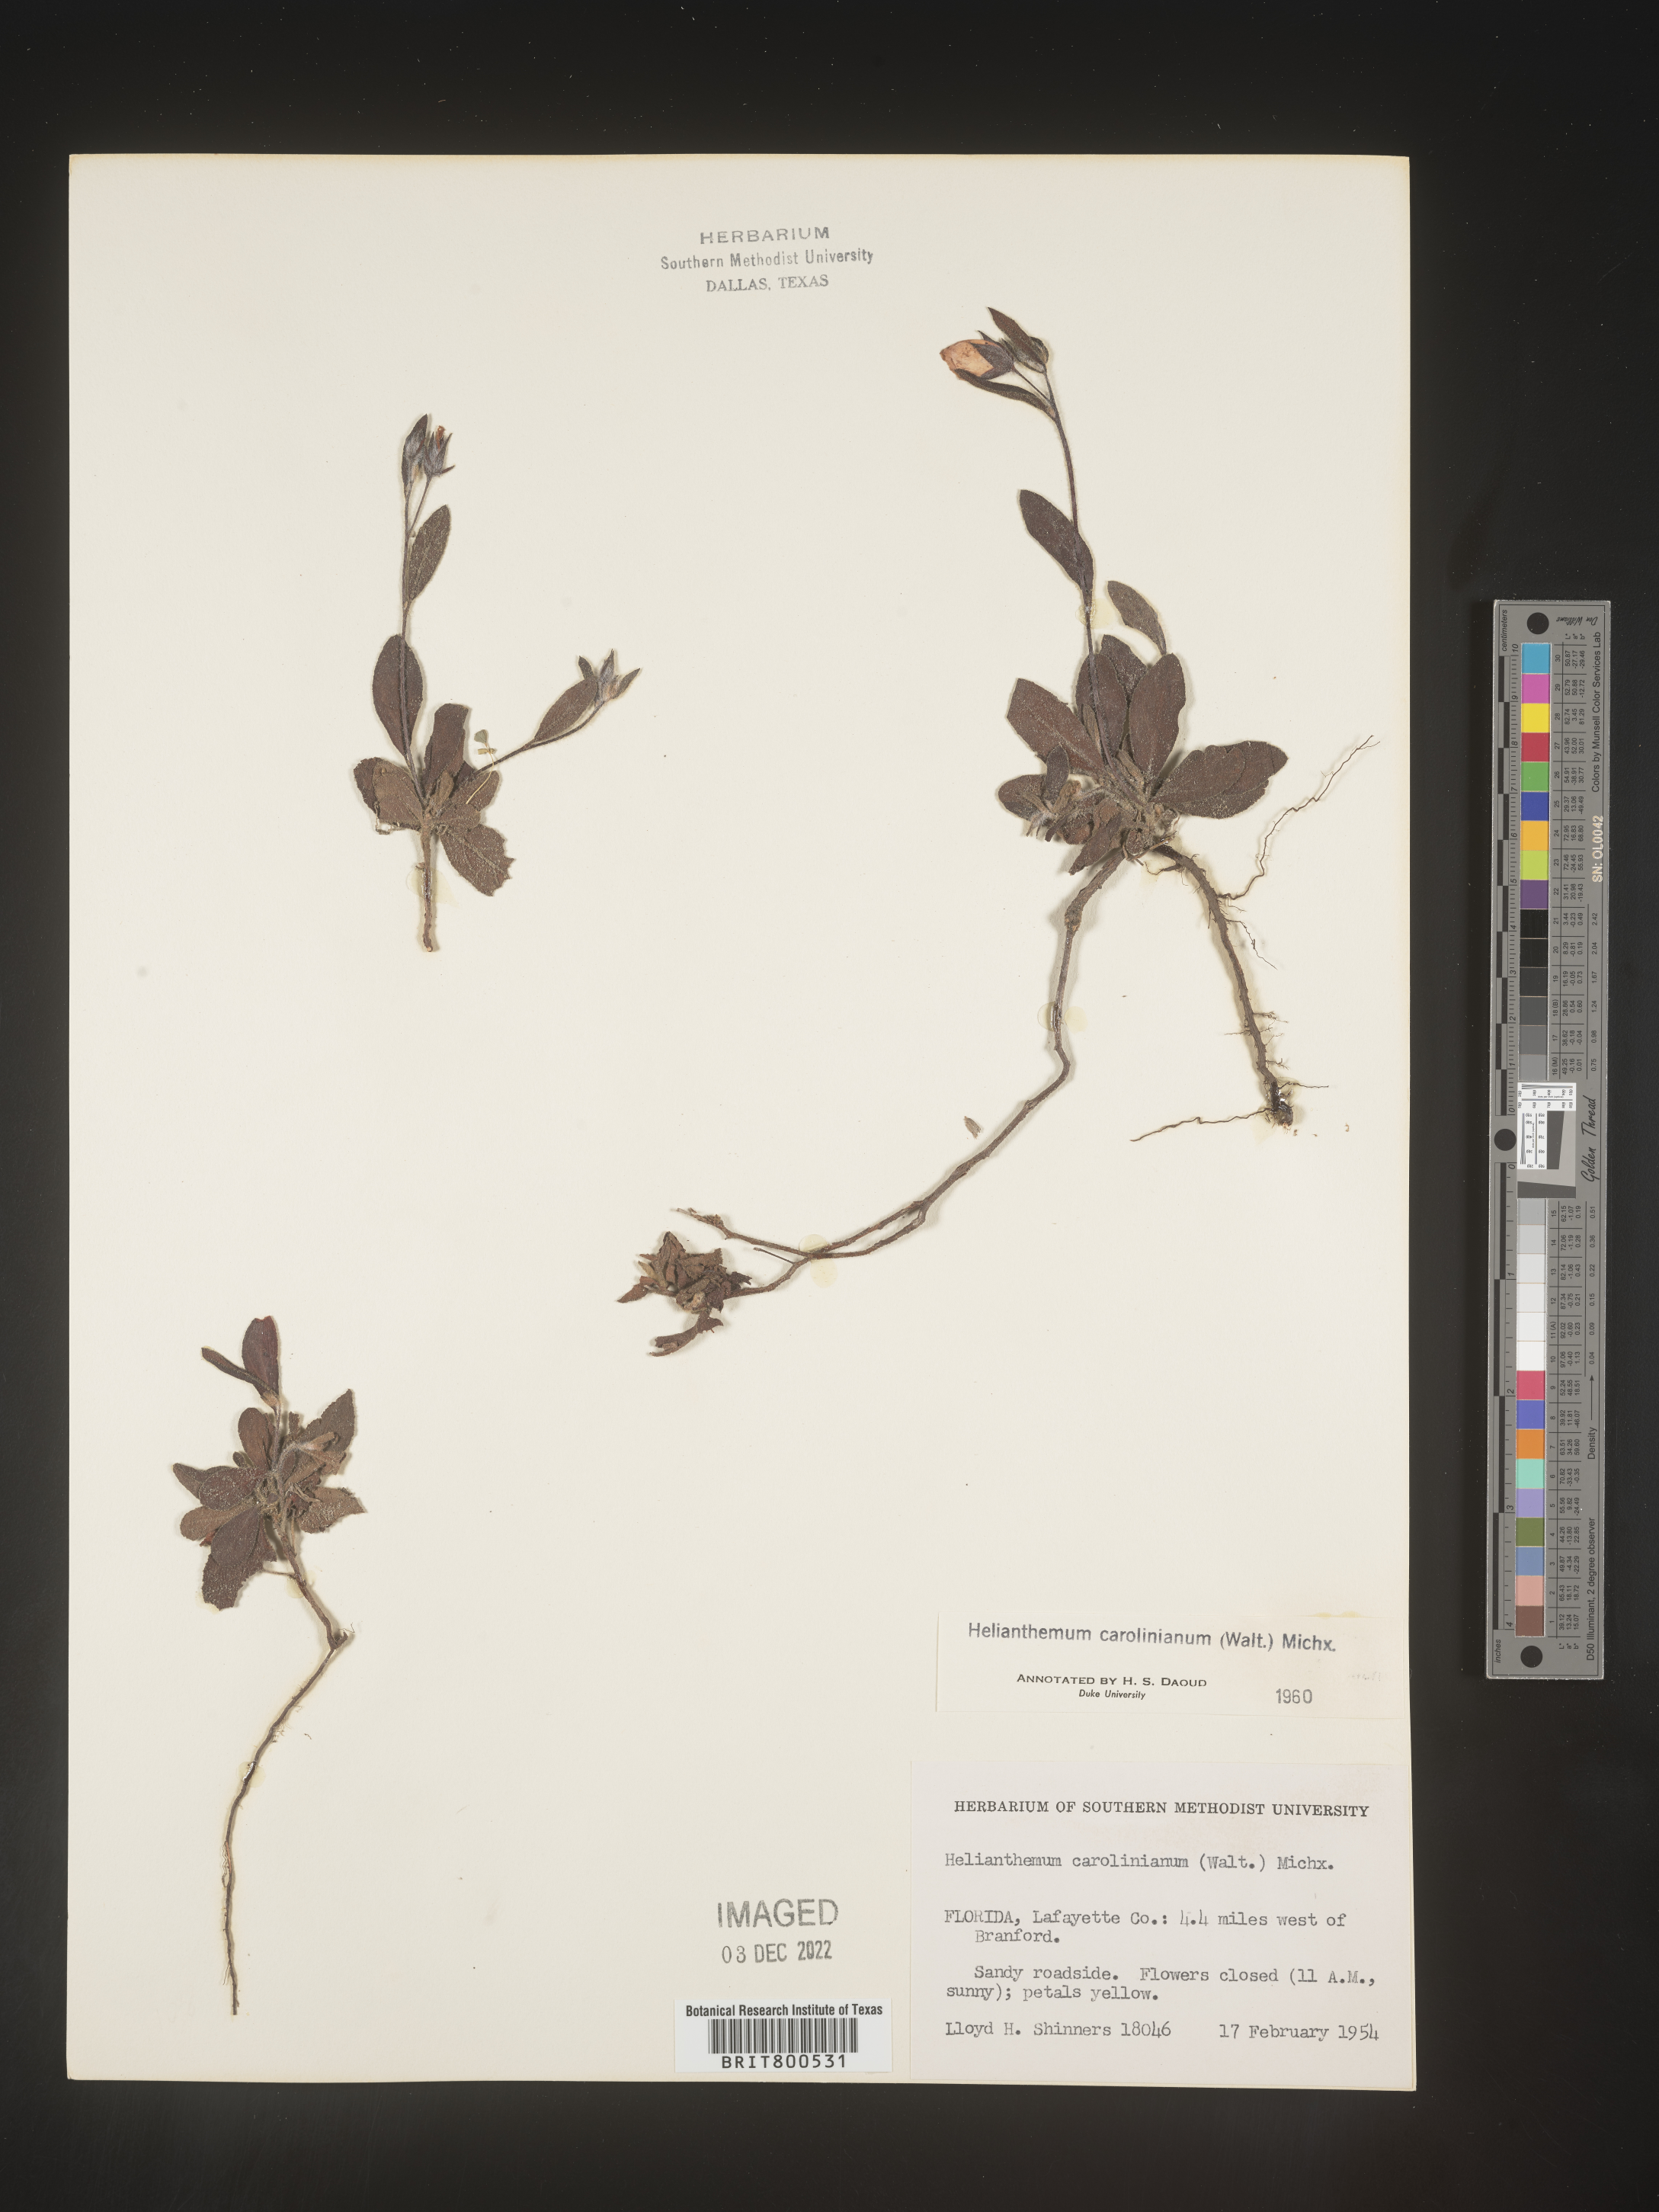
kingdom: Plantae
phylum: Tracheophyta
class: Magnoliopsida
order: Malvales
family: Cistaceae
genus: Crocanthemum
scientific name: Crocanthemum carolinianum
